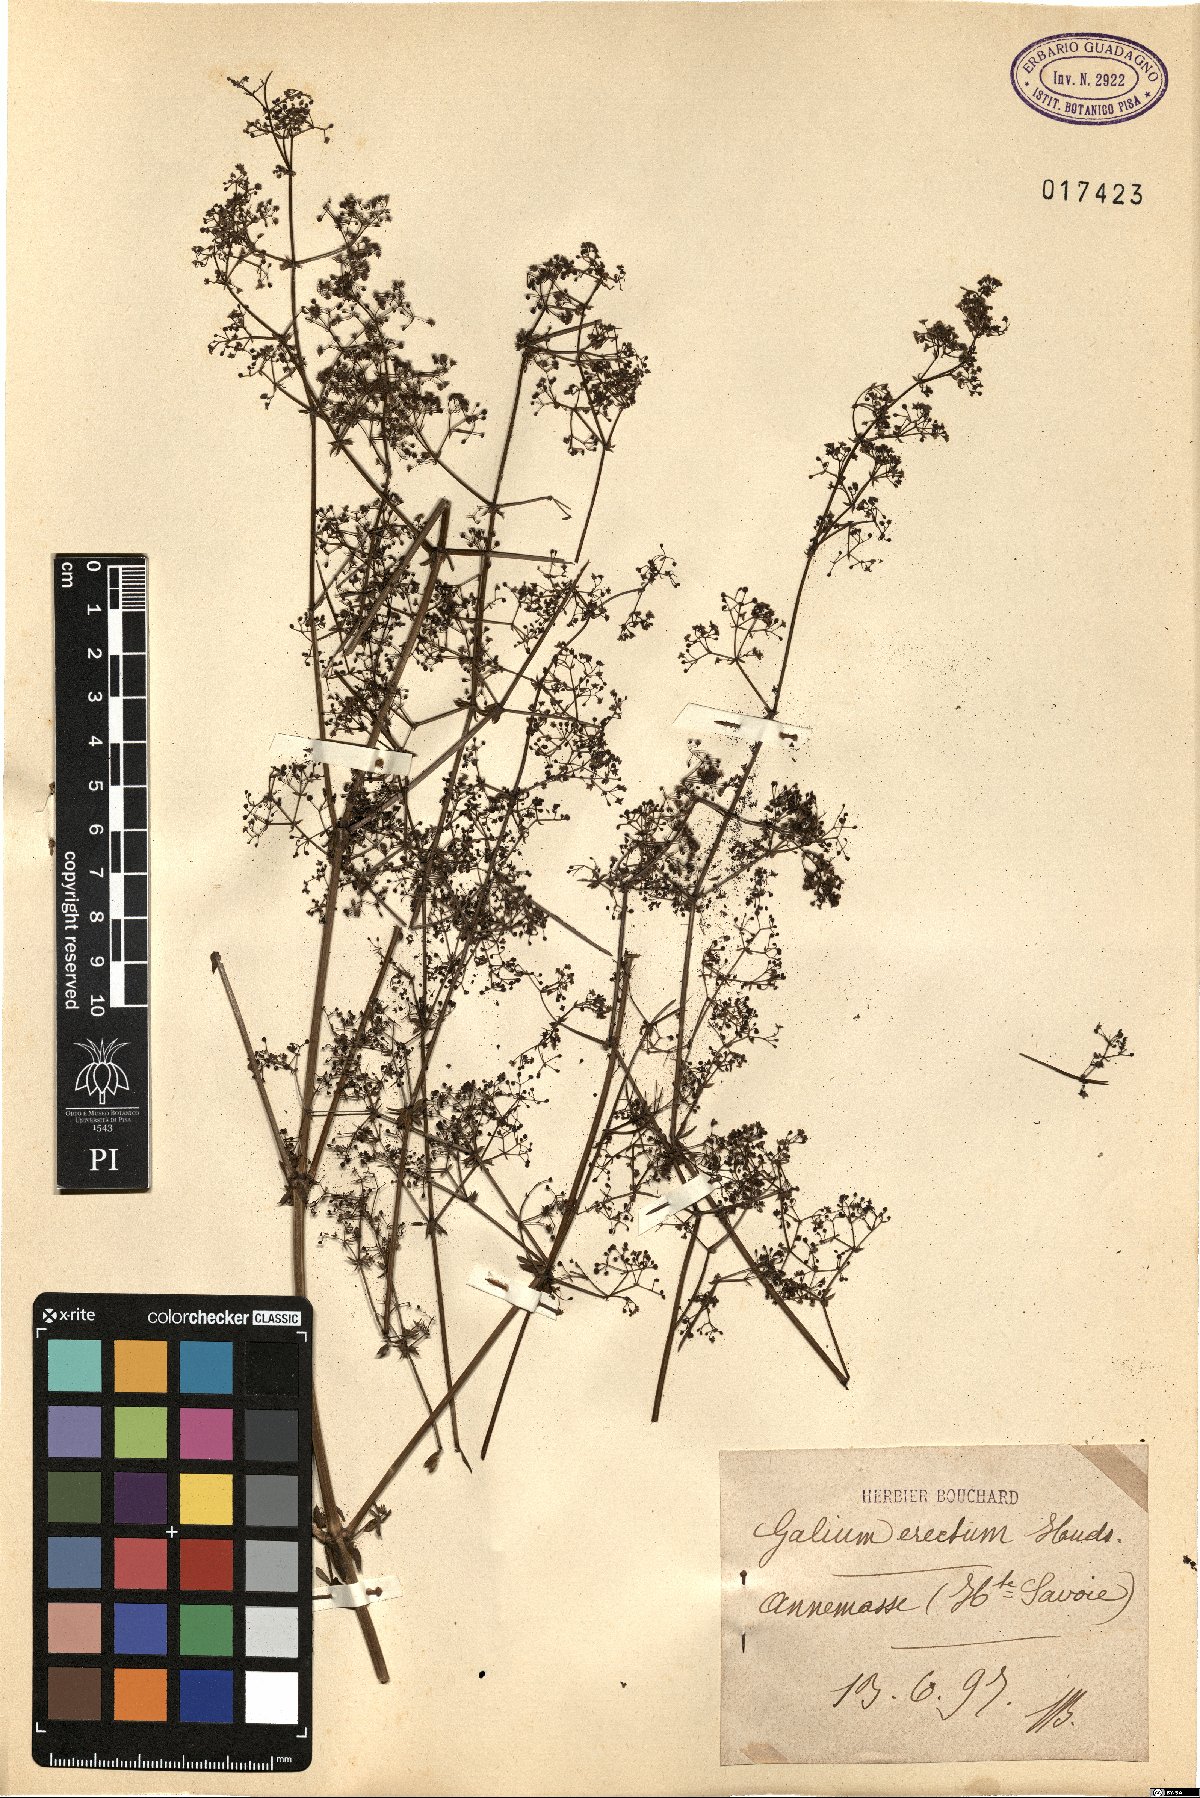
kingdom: Plantae
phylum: Tracheophyta
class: Magnoliopsida
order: Gentianales
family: Rubiaceae
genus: Galium
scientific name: Galium album
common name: White bedstraw
